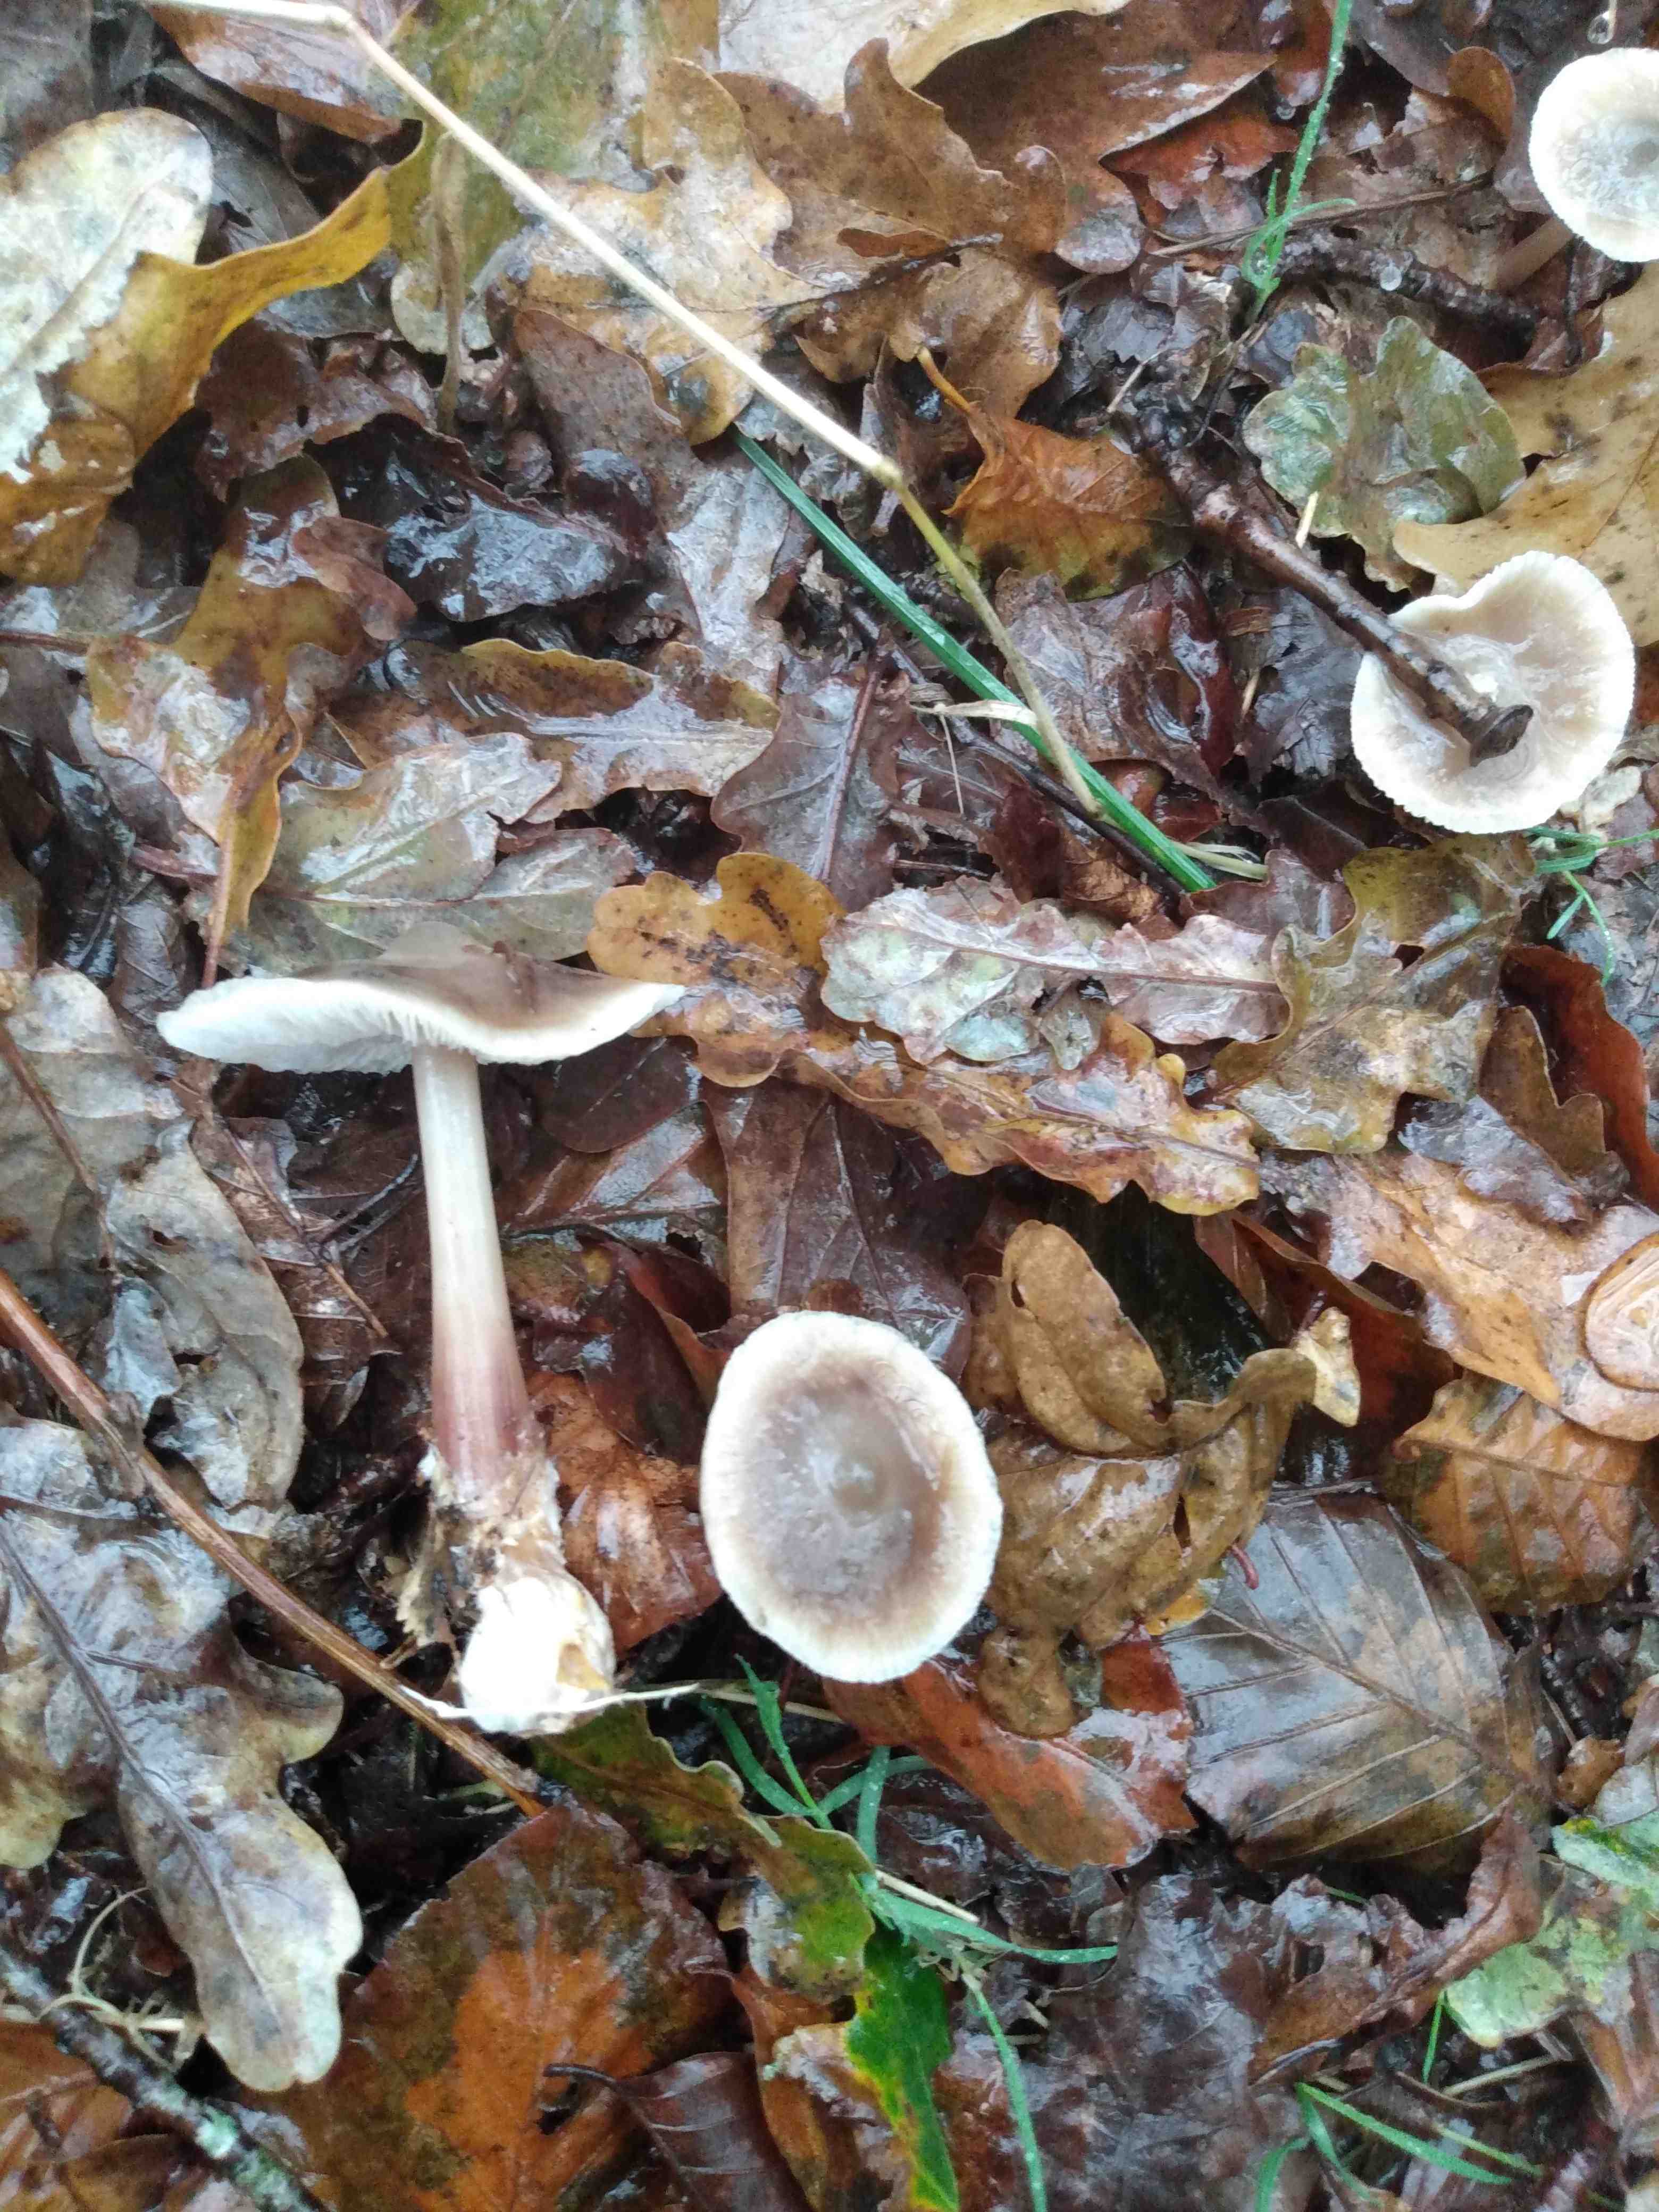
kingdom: Fungi
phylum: Basidiomycota
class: Agaricomycetes
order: Agaricales
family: Omphalotaceae
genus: Rhodocollybia
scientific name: Rhodocollybia asema
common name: horngrå fladhat
